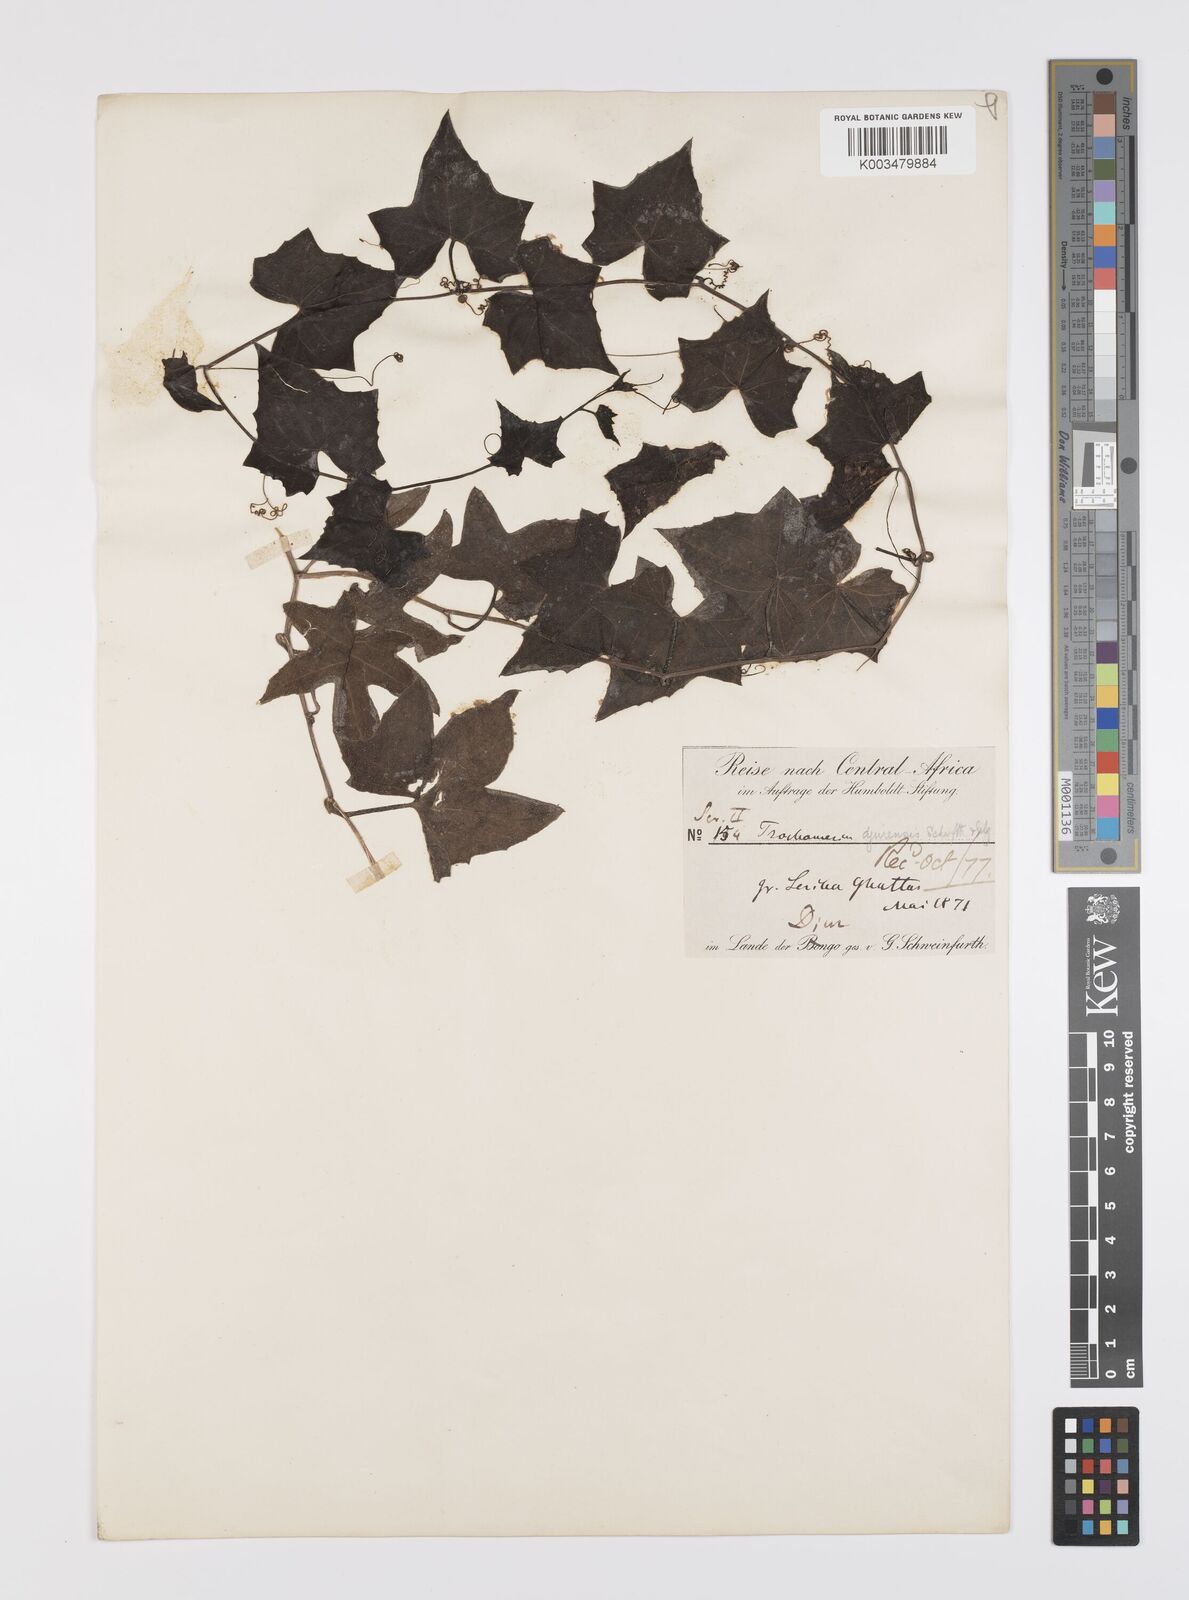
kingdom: Plantae
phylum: Tracheophyta
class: Magnoliopsida
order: Cucurbitales
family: Cucurbitaceae
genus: Trochomeria
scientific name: Trochomeria macrocarpa
